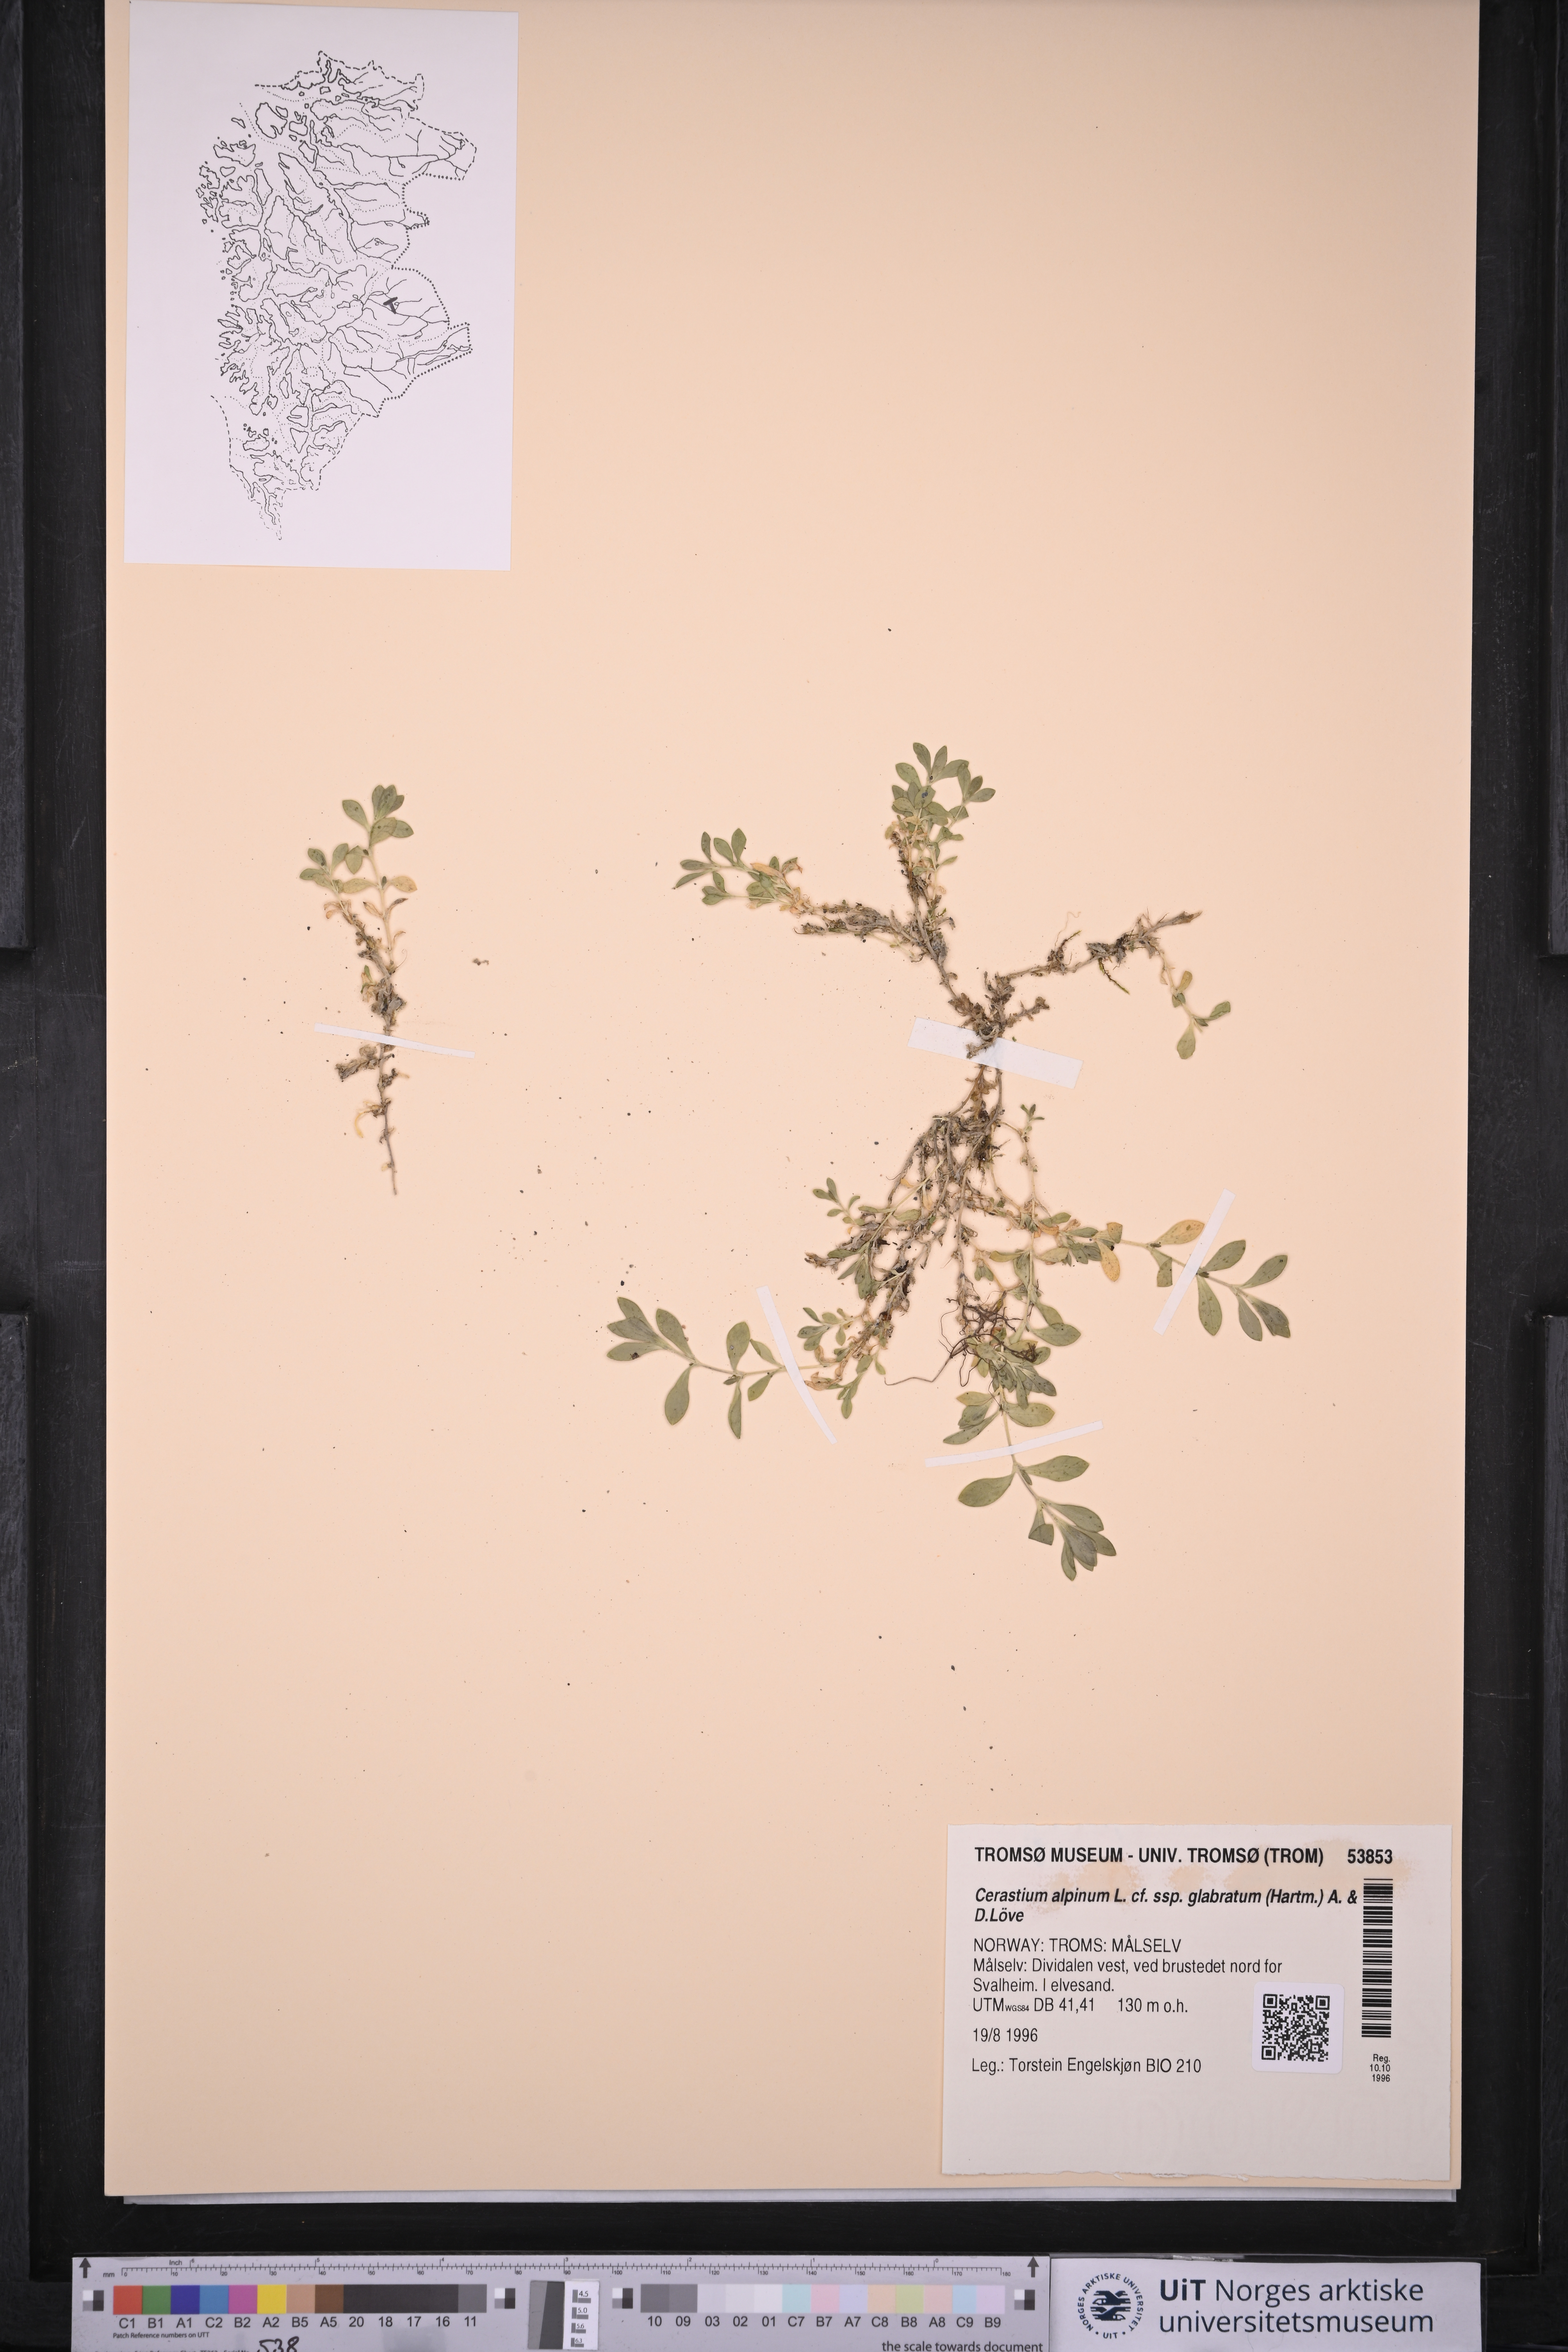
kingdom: Plantae
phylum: Tracheophyta
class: Magnoliopsida
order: Caryophyllales
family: Caryophyllaceae
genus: Cerastium
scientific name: Cerastium alpinum
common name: Alpine mouse-ear
